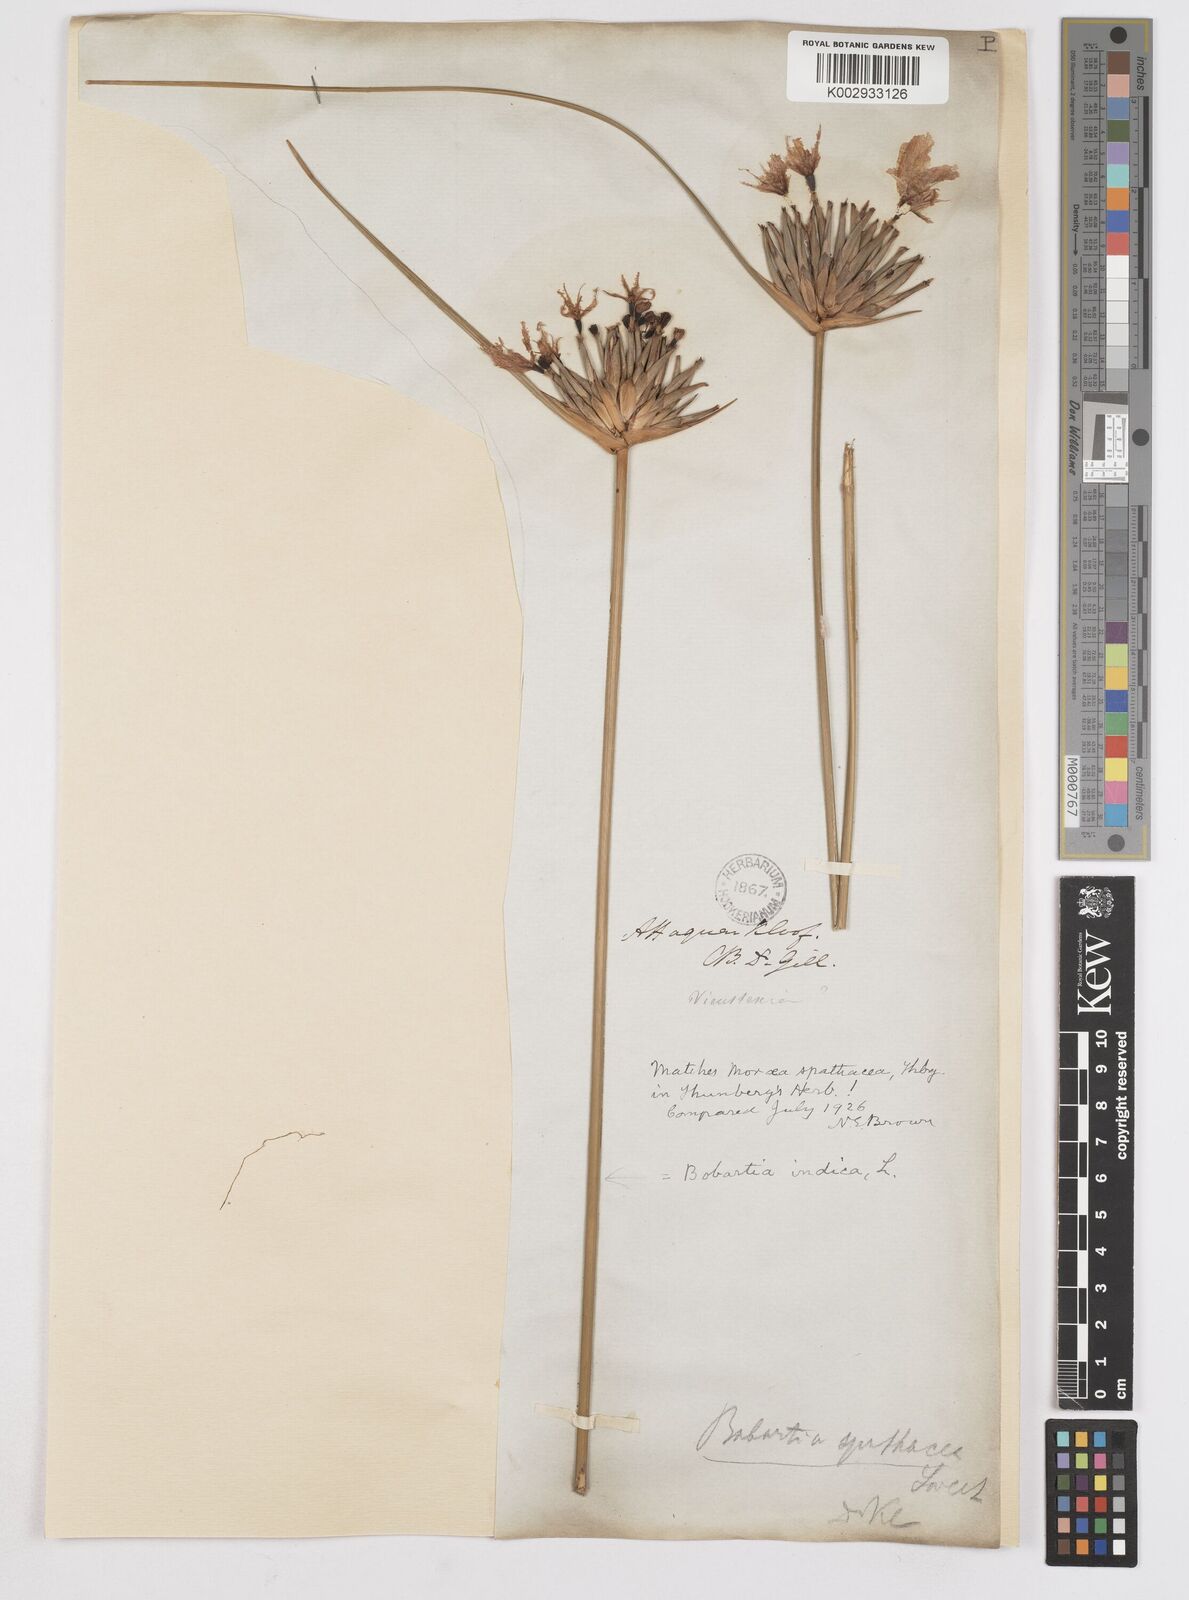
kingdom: Plantae
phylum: Tracheophyta
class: Liliopsida
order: Asparagales
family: Iridaceae
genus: Bobartia
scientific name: Bobartia indica
